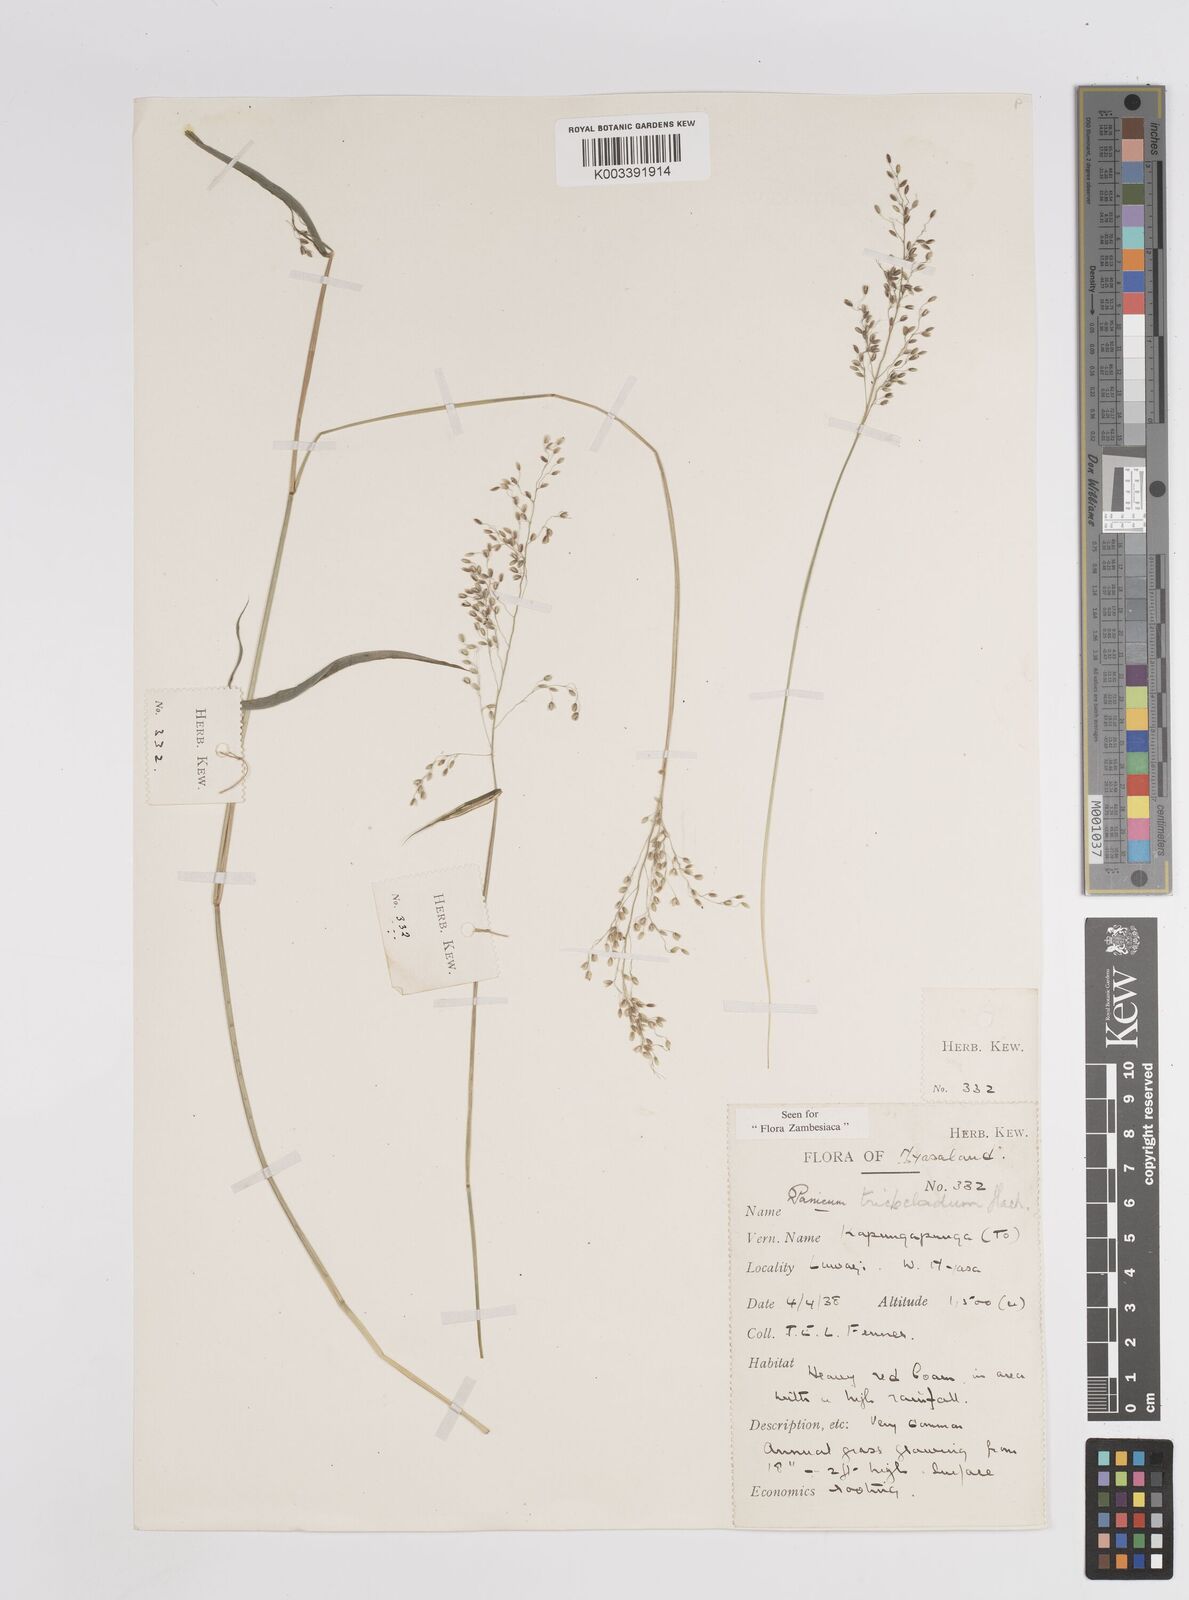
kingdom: Plantae
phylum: Tracheophyta
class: Liliopsida
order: Poales
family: Poaceae
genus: Panicum
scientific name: Panicum trichocladum
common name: Donkey grass
